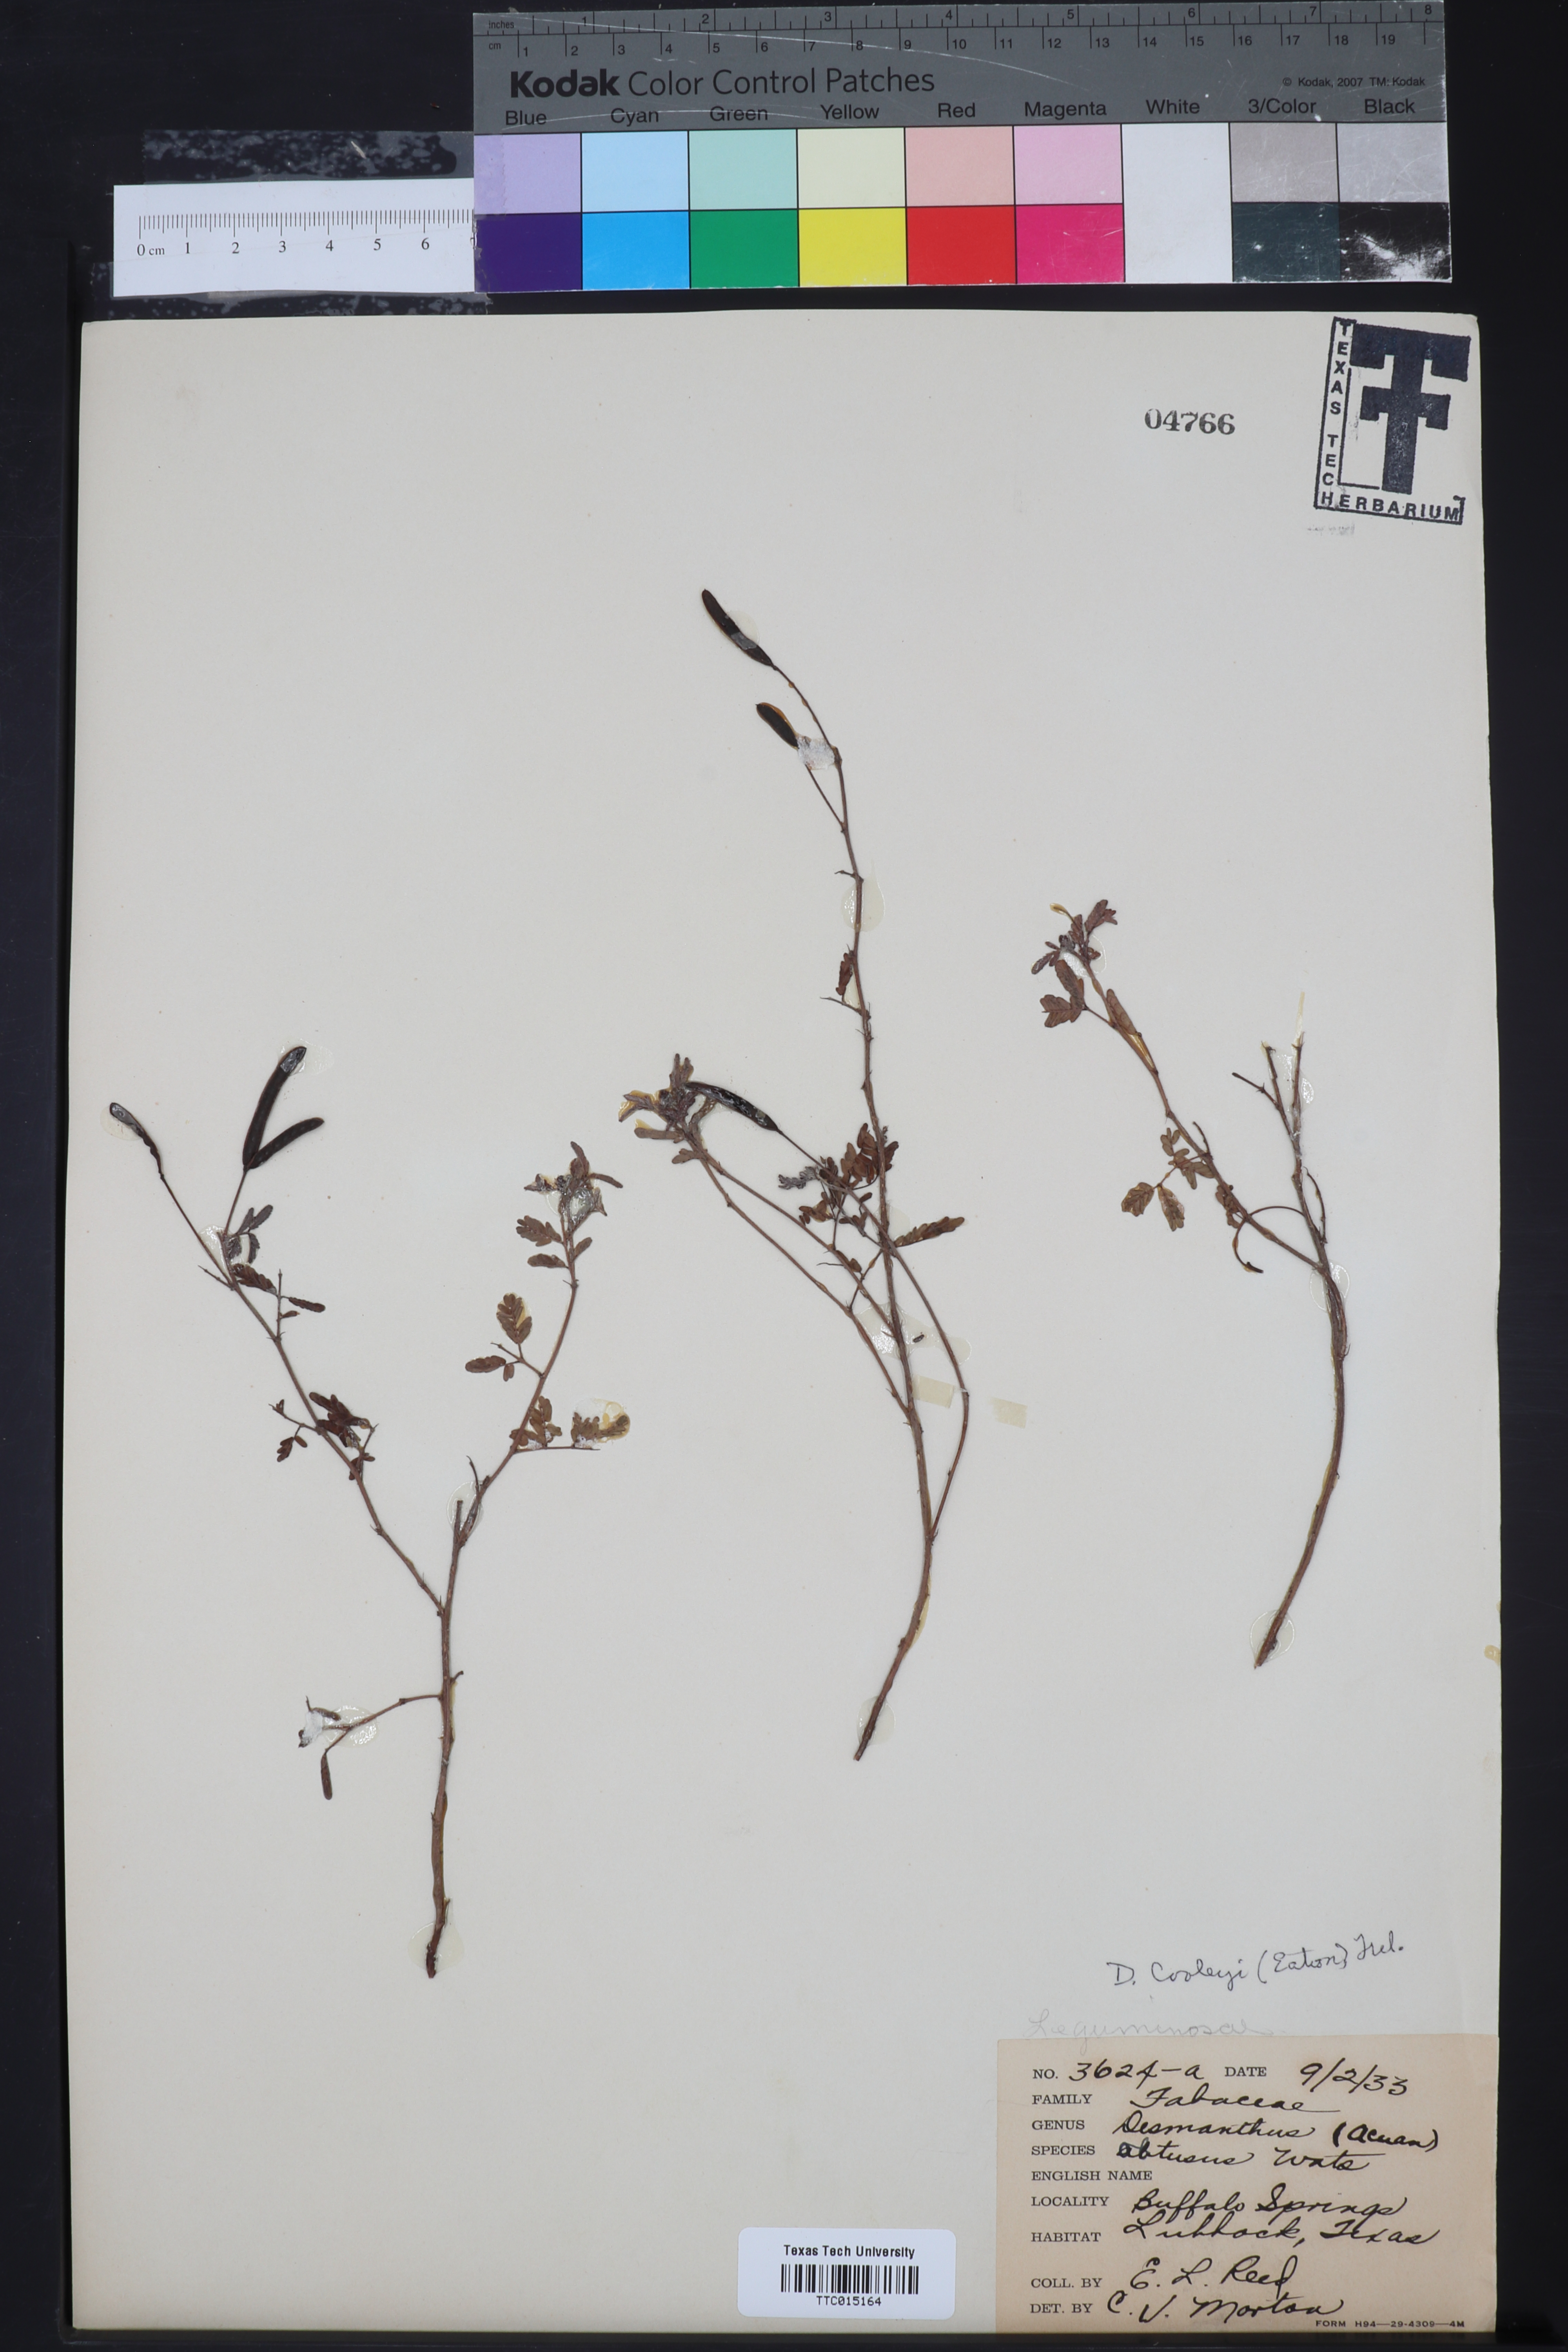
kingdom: Plantae
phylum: Tracheophyta
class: Magnoliopsida
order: Fabales
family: Fabaceae
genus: Desmanthus
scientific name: Desmanthus cooleyi
